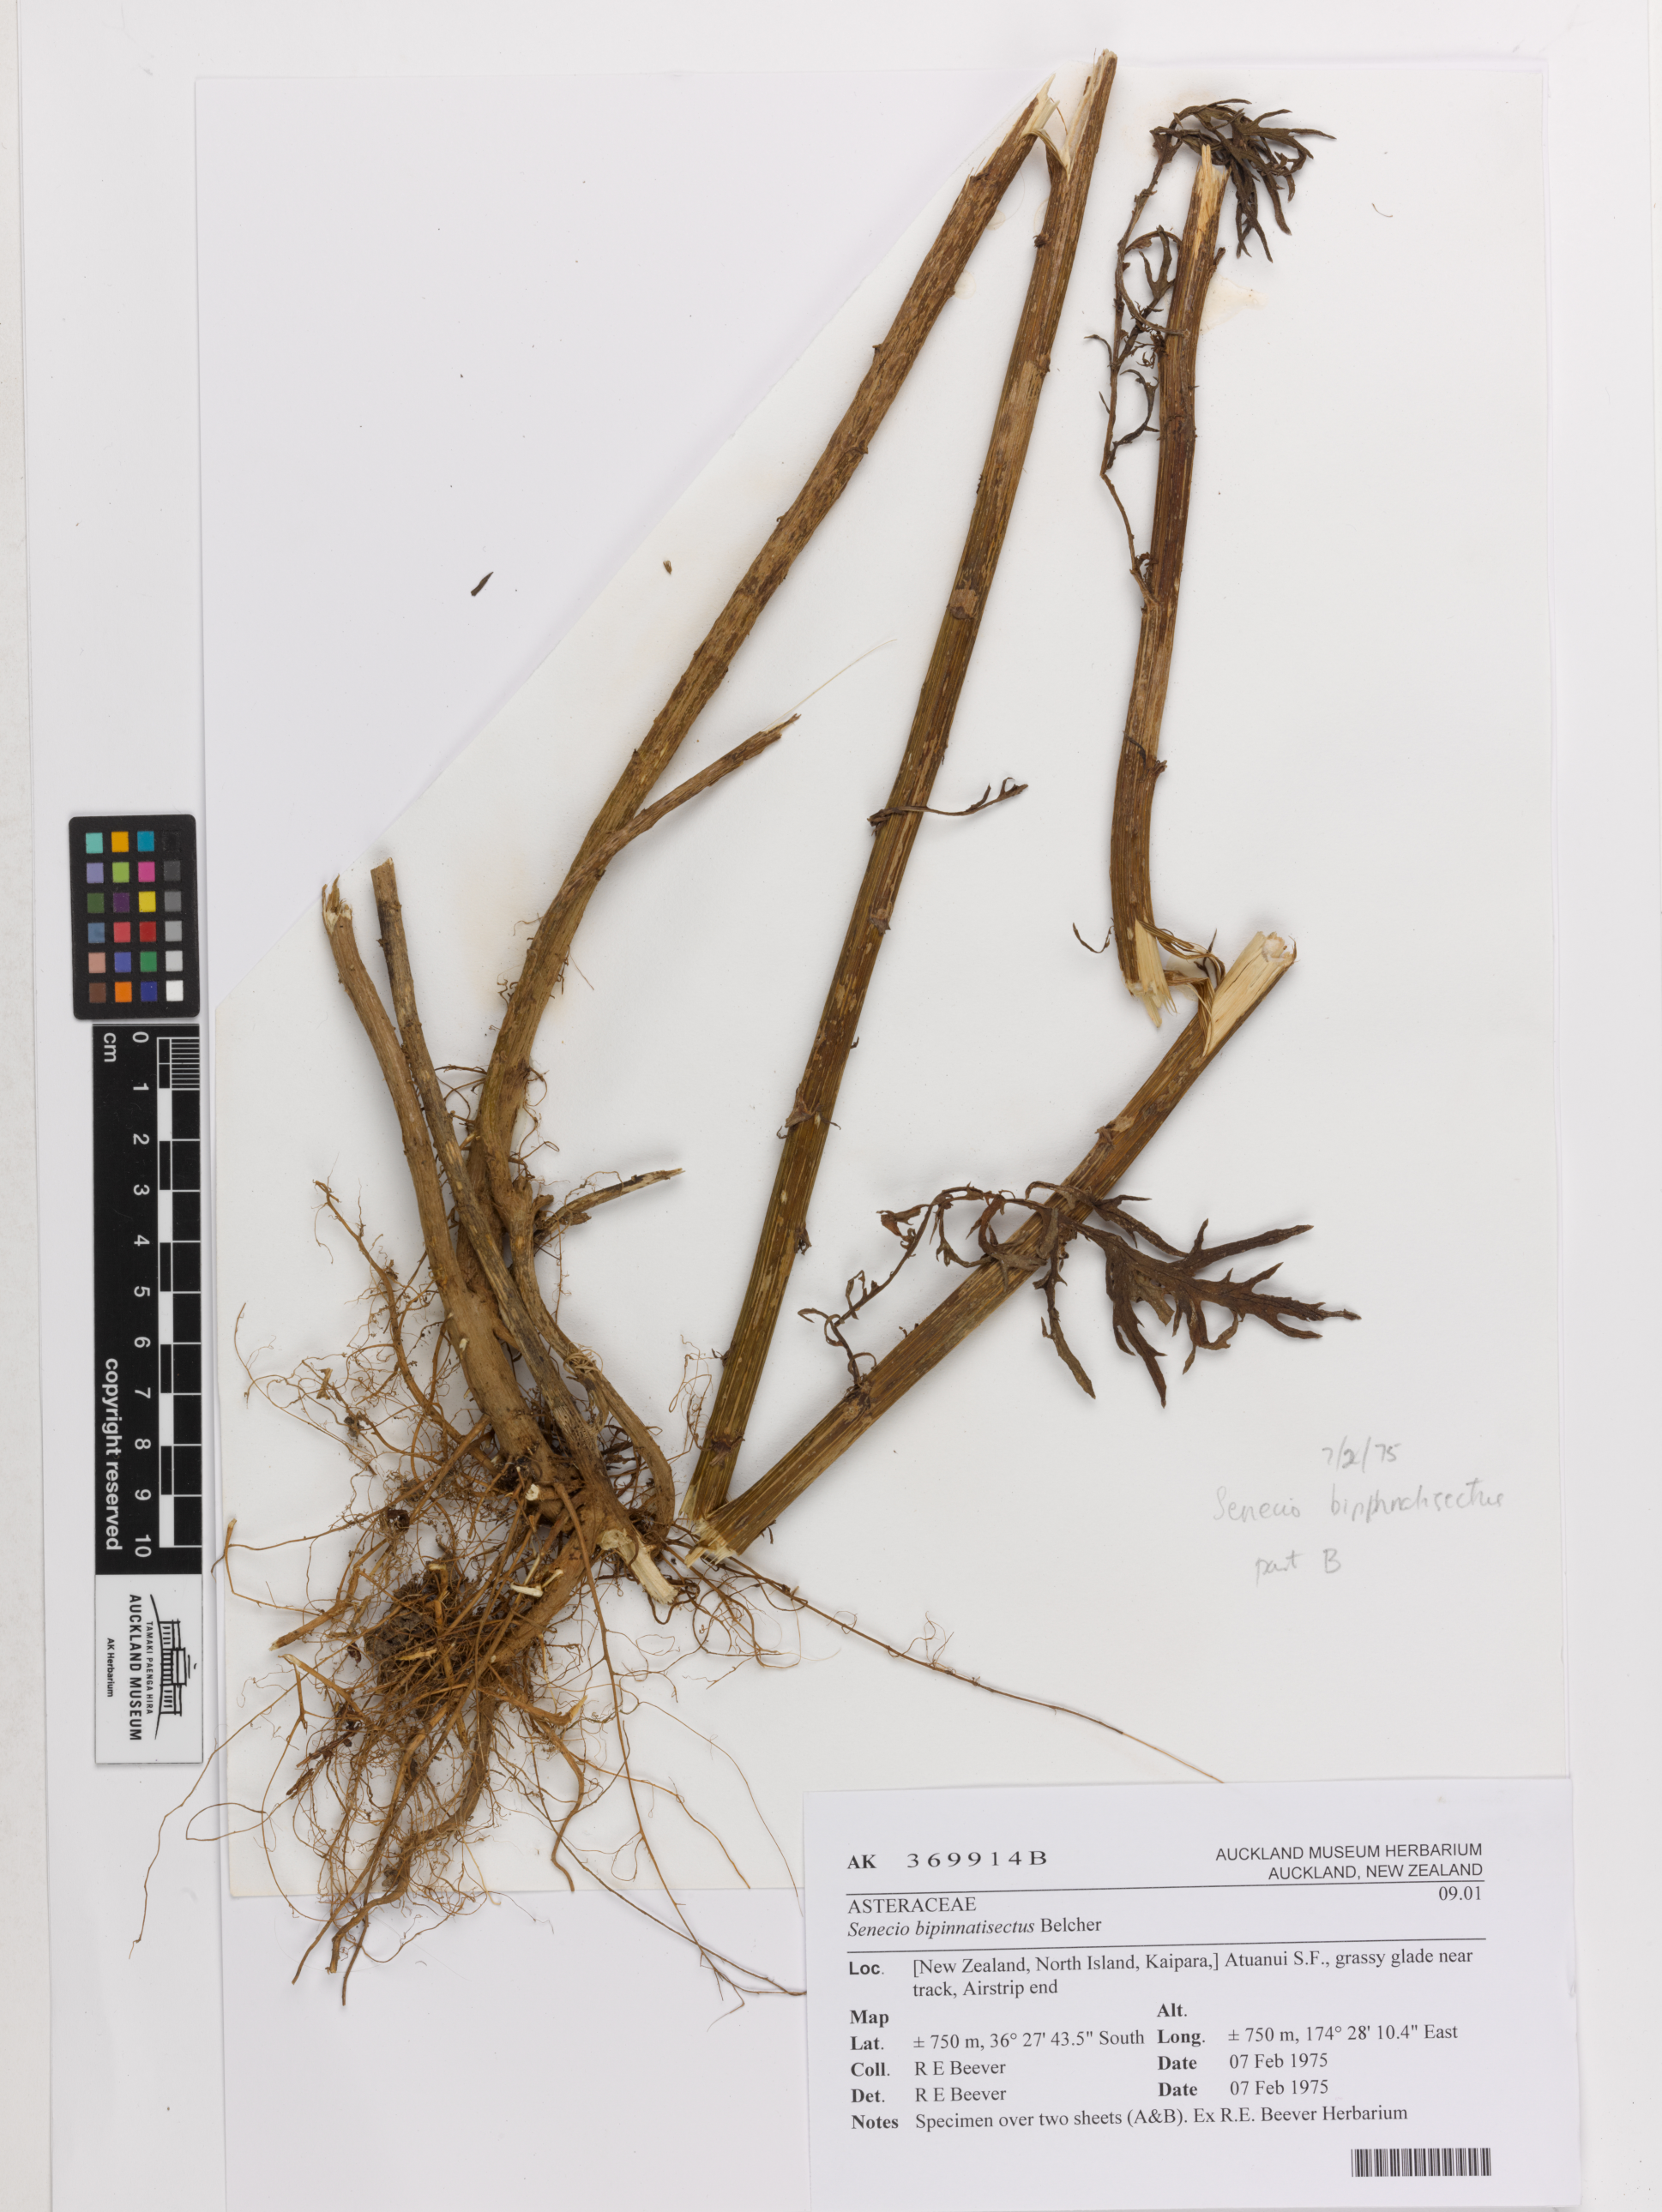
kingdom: Plantae
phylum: Tracheophyta
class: Magnoliopsida
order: Asterales
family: Asteraceae
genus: Senecio
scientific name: Senecio bipinnatisectus
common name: Australian fireweed
